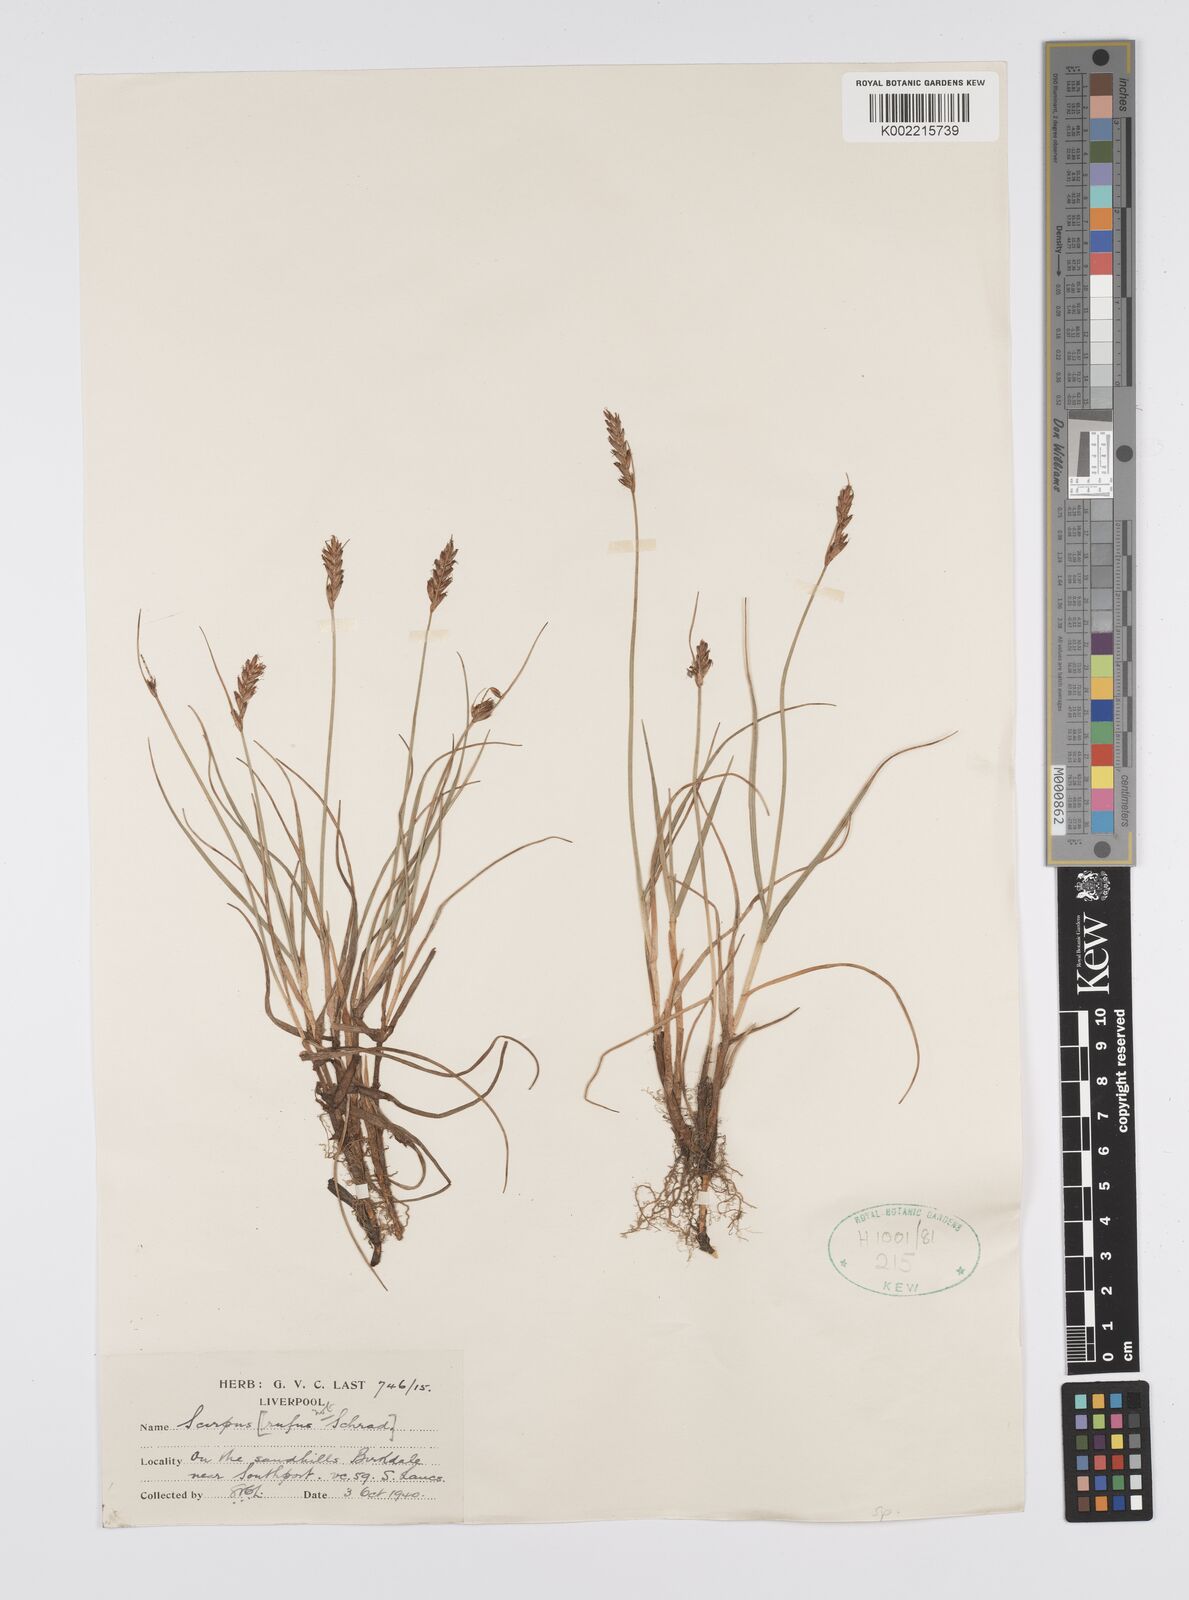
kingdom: Plantae
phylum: Tracheophyta
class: Liliopsida
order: Poales
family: Cyperaceae
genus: Carex
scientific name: Carex
